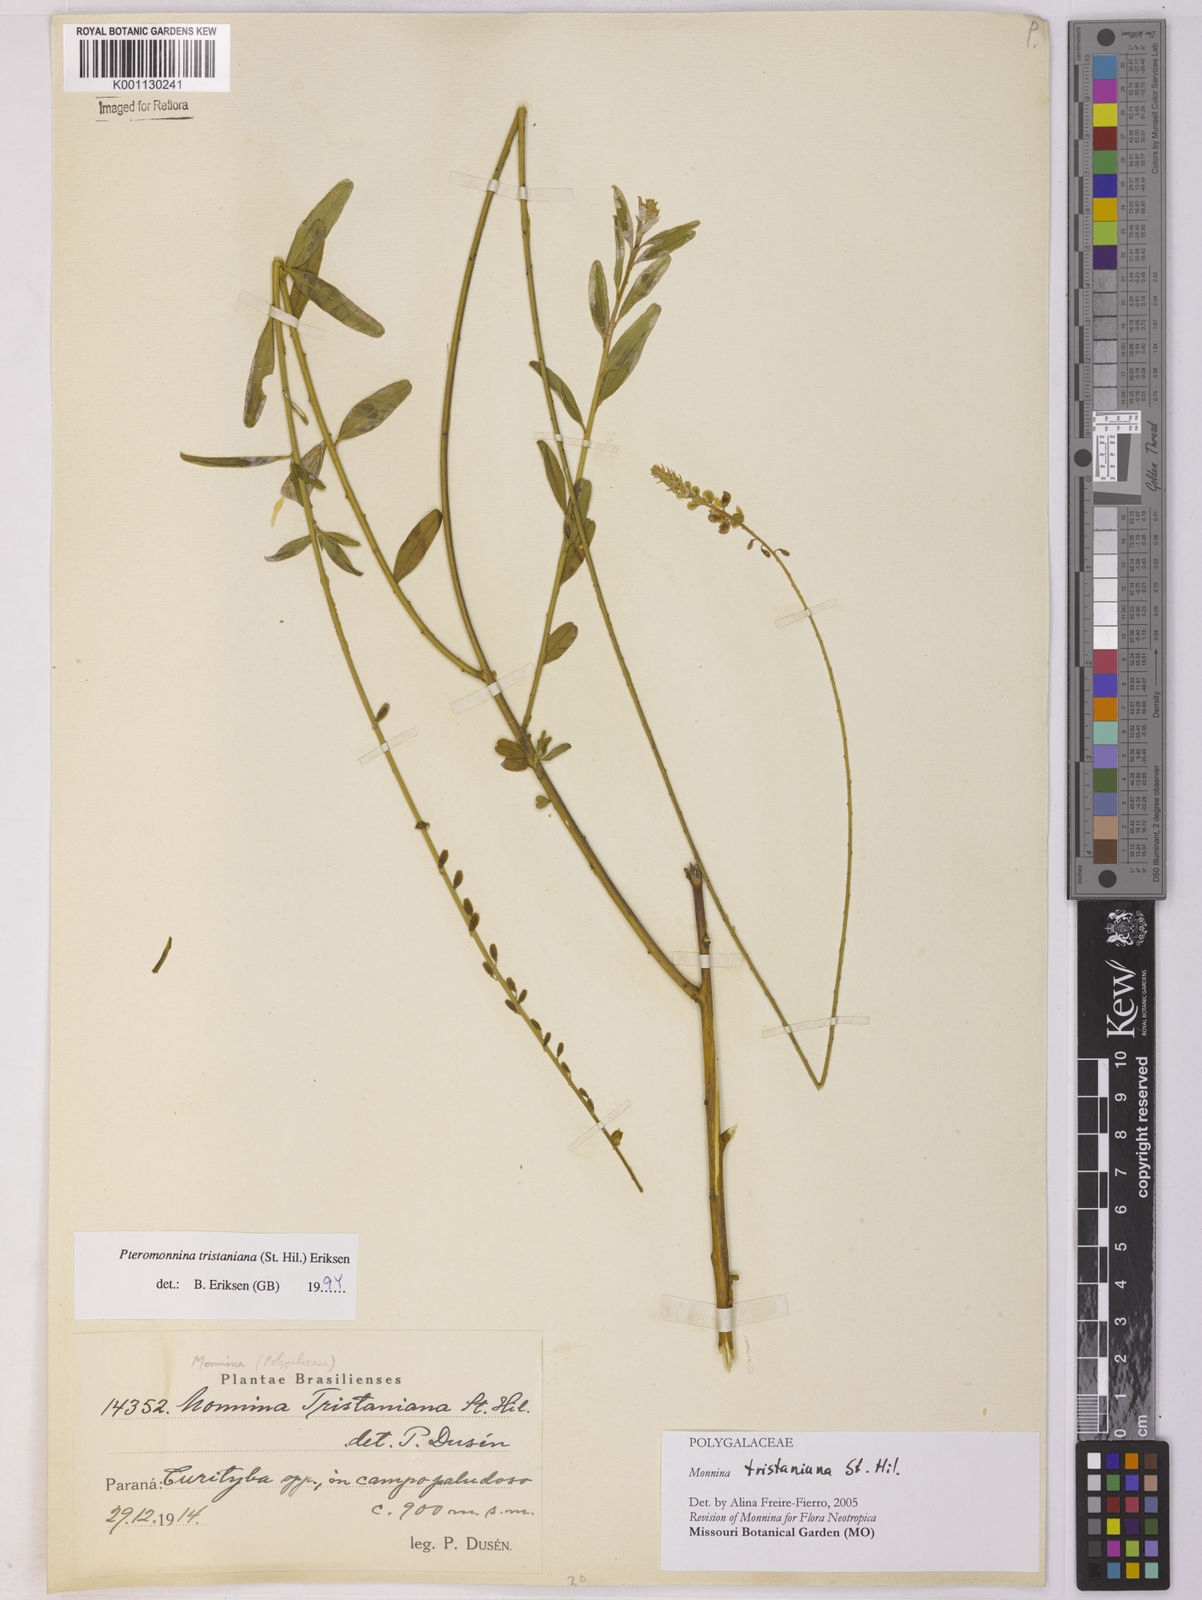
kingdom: Plantae
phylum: Tracheophyta
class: Magnoliopsida
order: Fabales
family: Polygalaceae
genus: Monnina
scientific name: Monnina tristaniana
